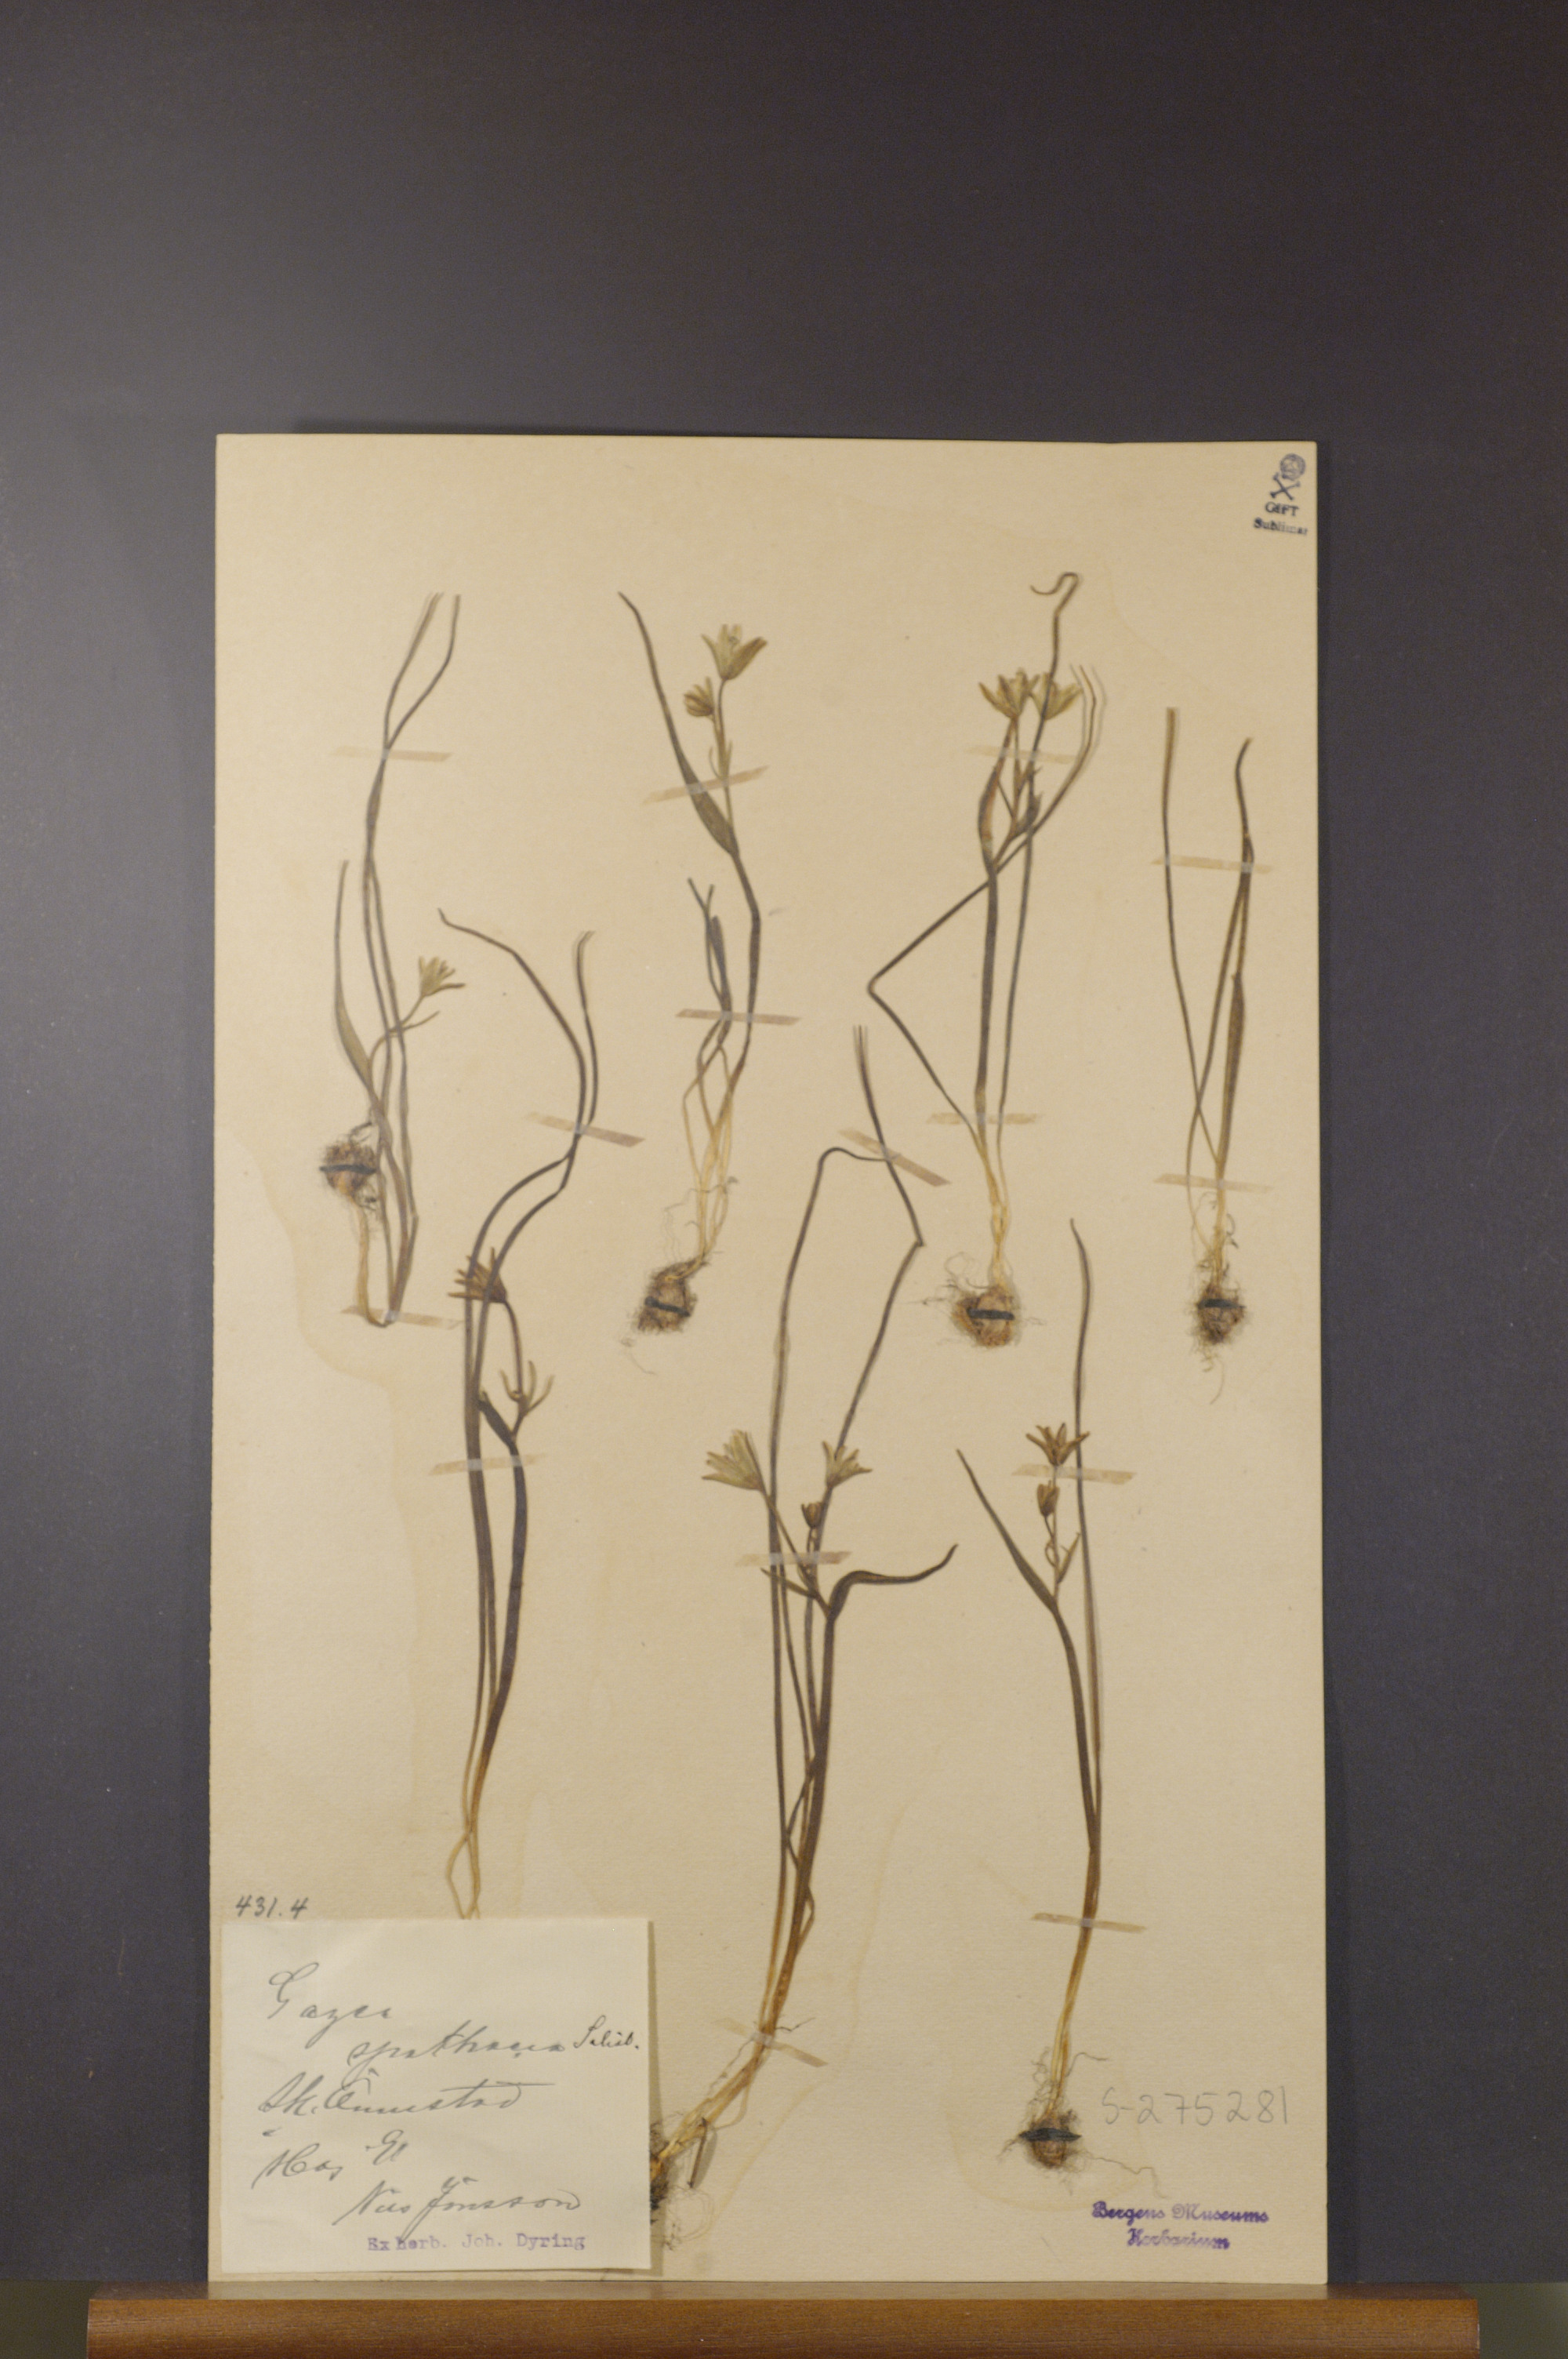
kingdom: Plantae
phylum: Tracheophyta
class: Liliopsida
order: Liliales
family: Liliaceae
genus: Gagea
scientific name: Gagea spathacea
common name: Belgian gagea
